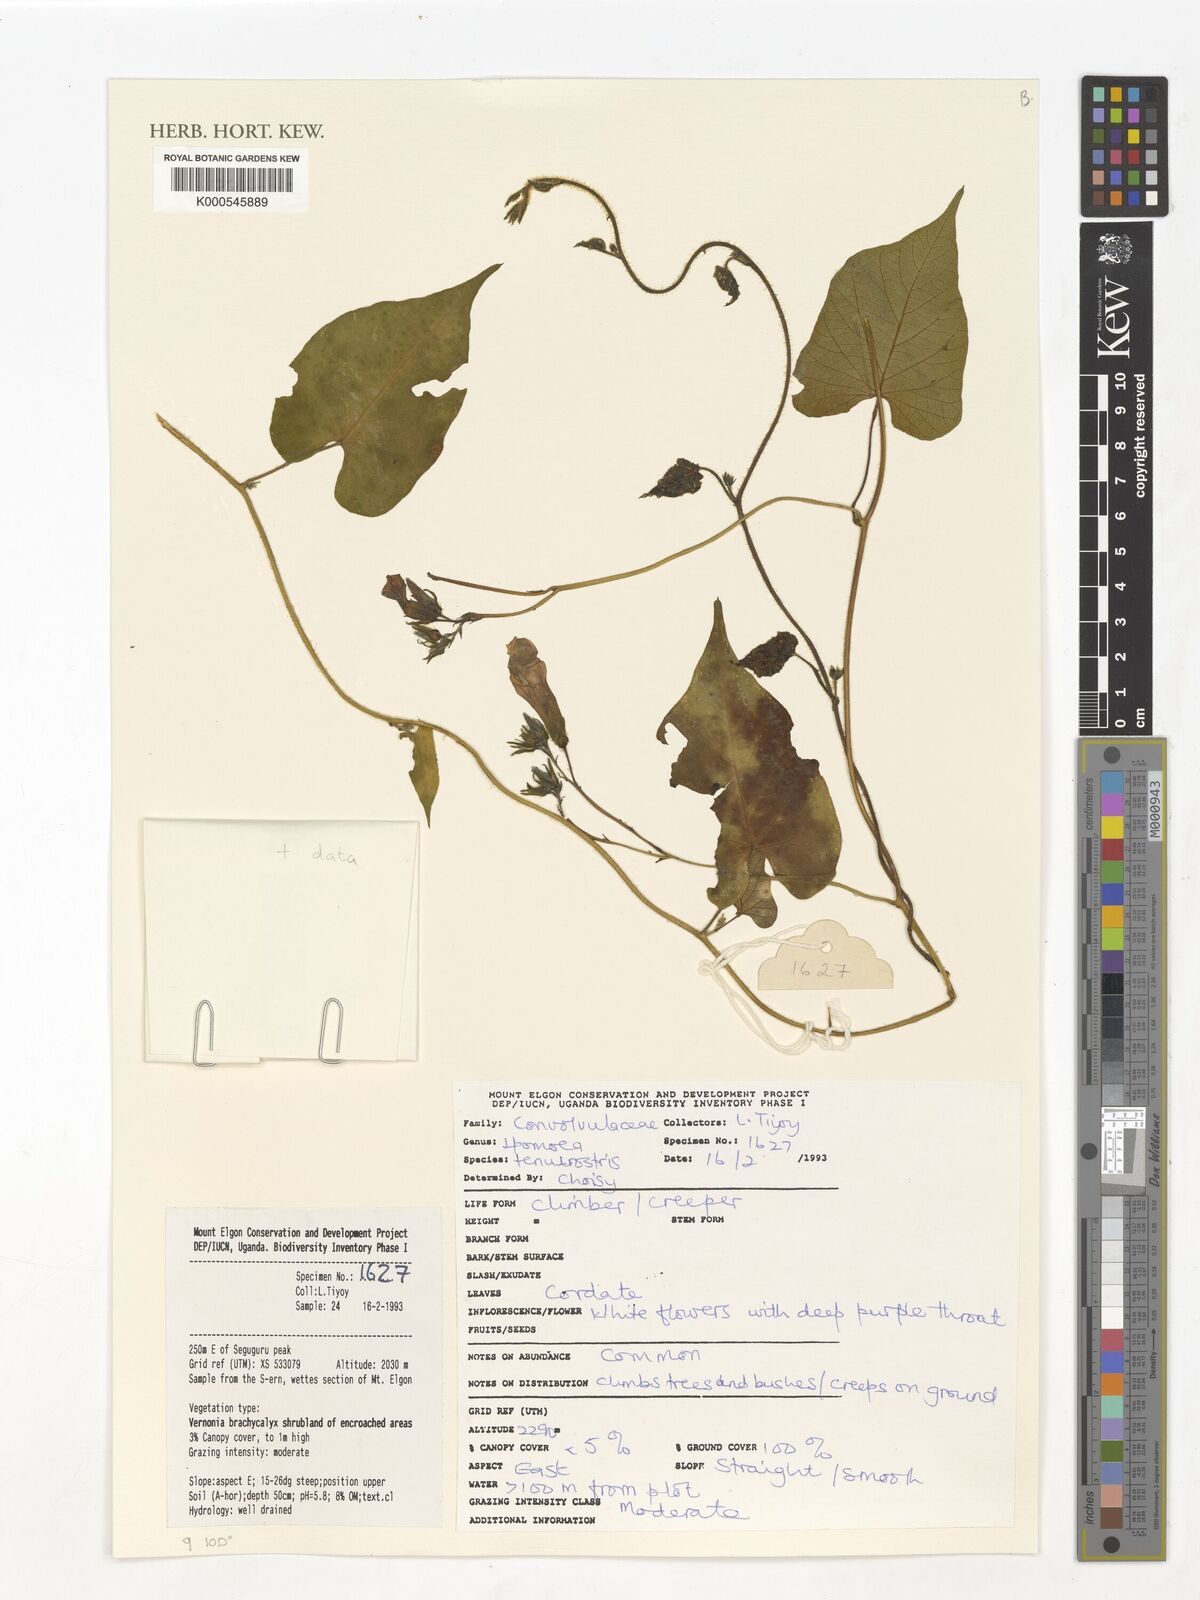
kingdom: Plantae
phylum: Tracheophyta
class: Magnoliopsida
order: Solanales
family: Convolvulaceae
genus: Ipomoea
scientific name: Ipomoea tenuirostris
